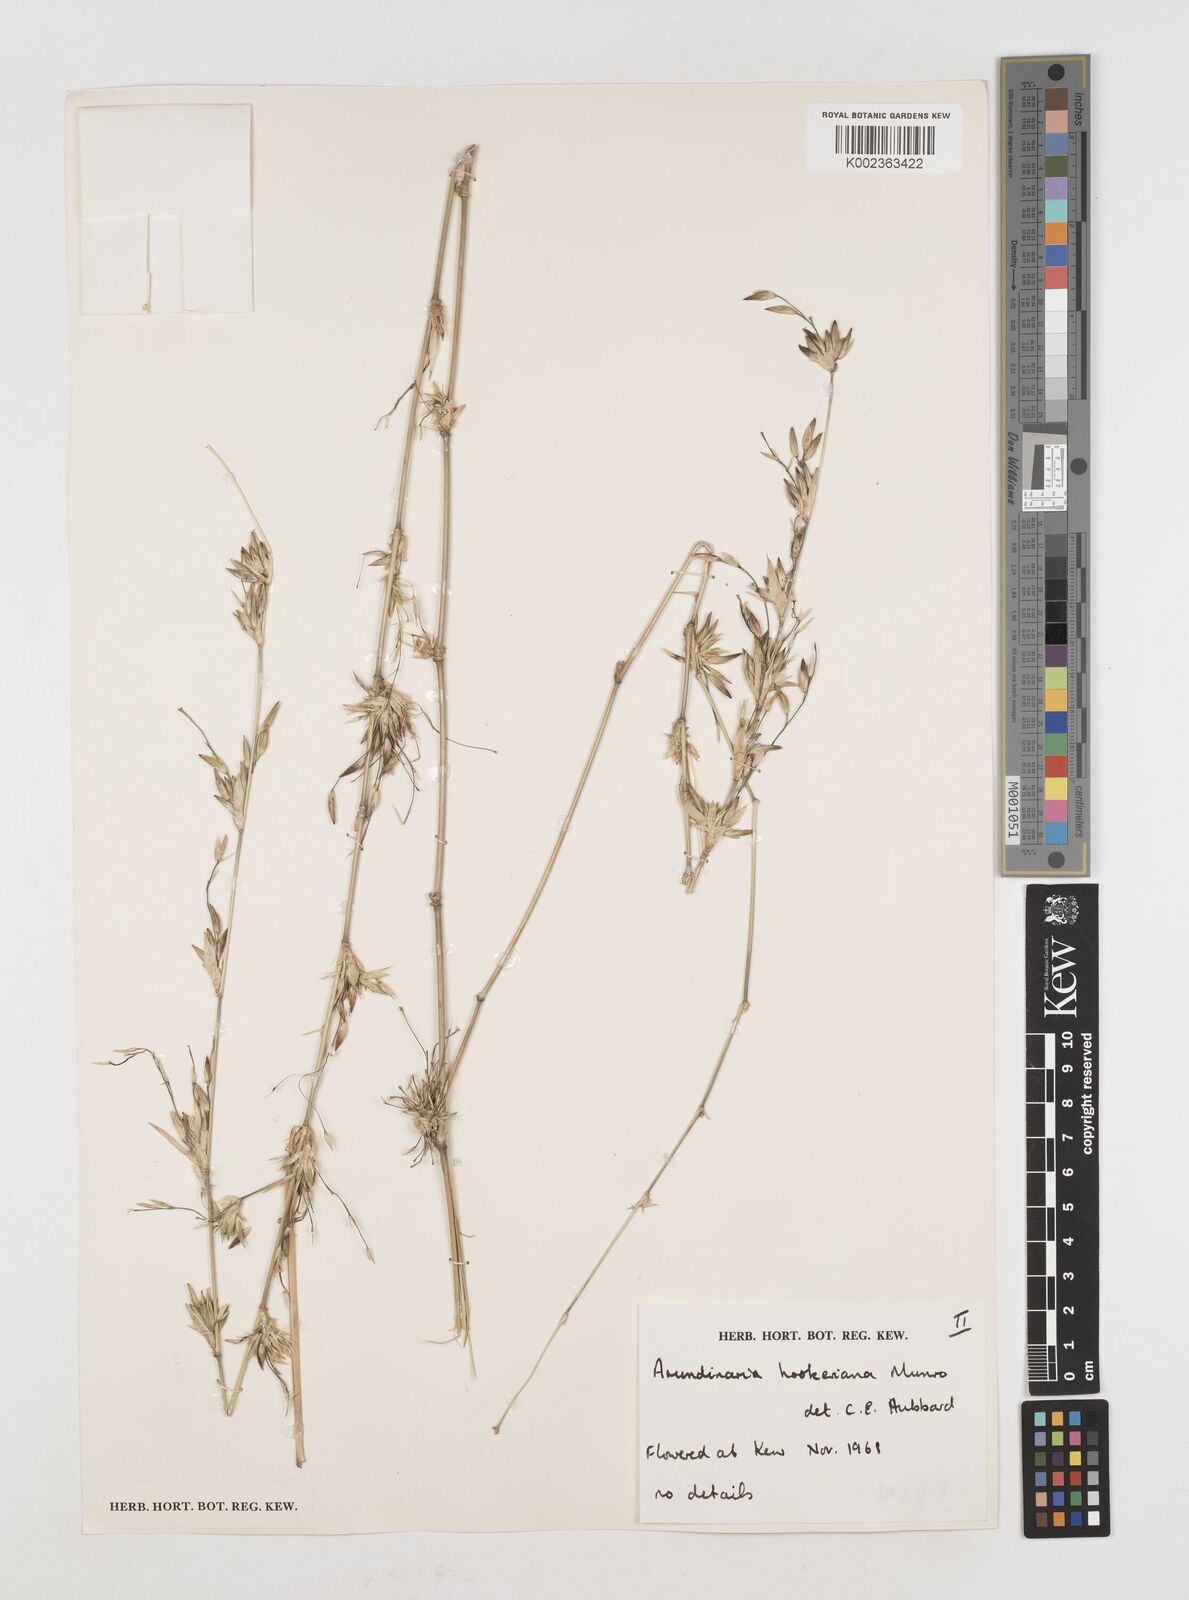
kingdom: Plantae
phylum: Tracheophyta
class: Liliopsida
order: Poales
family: Poaceae
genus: Himalayacalamus
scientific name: Himalayacalamus hookerianus
